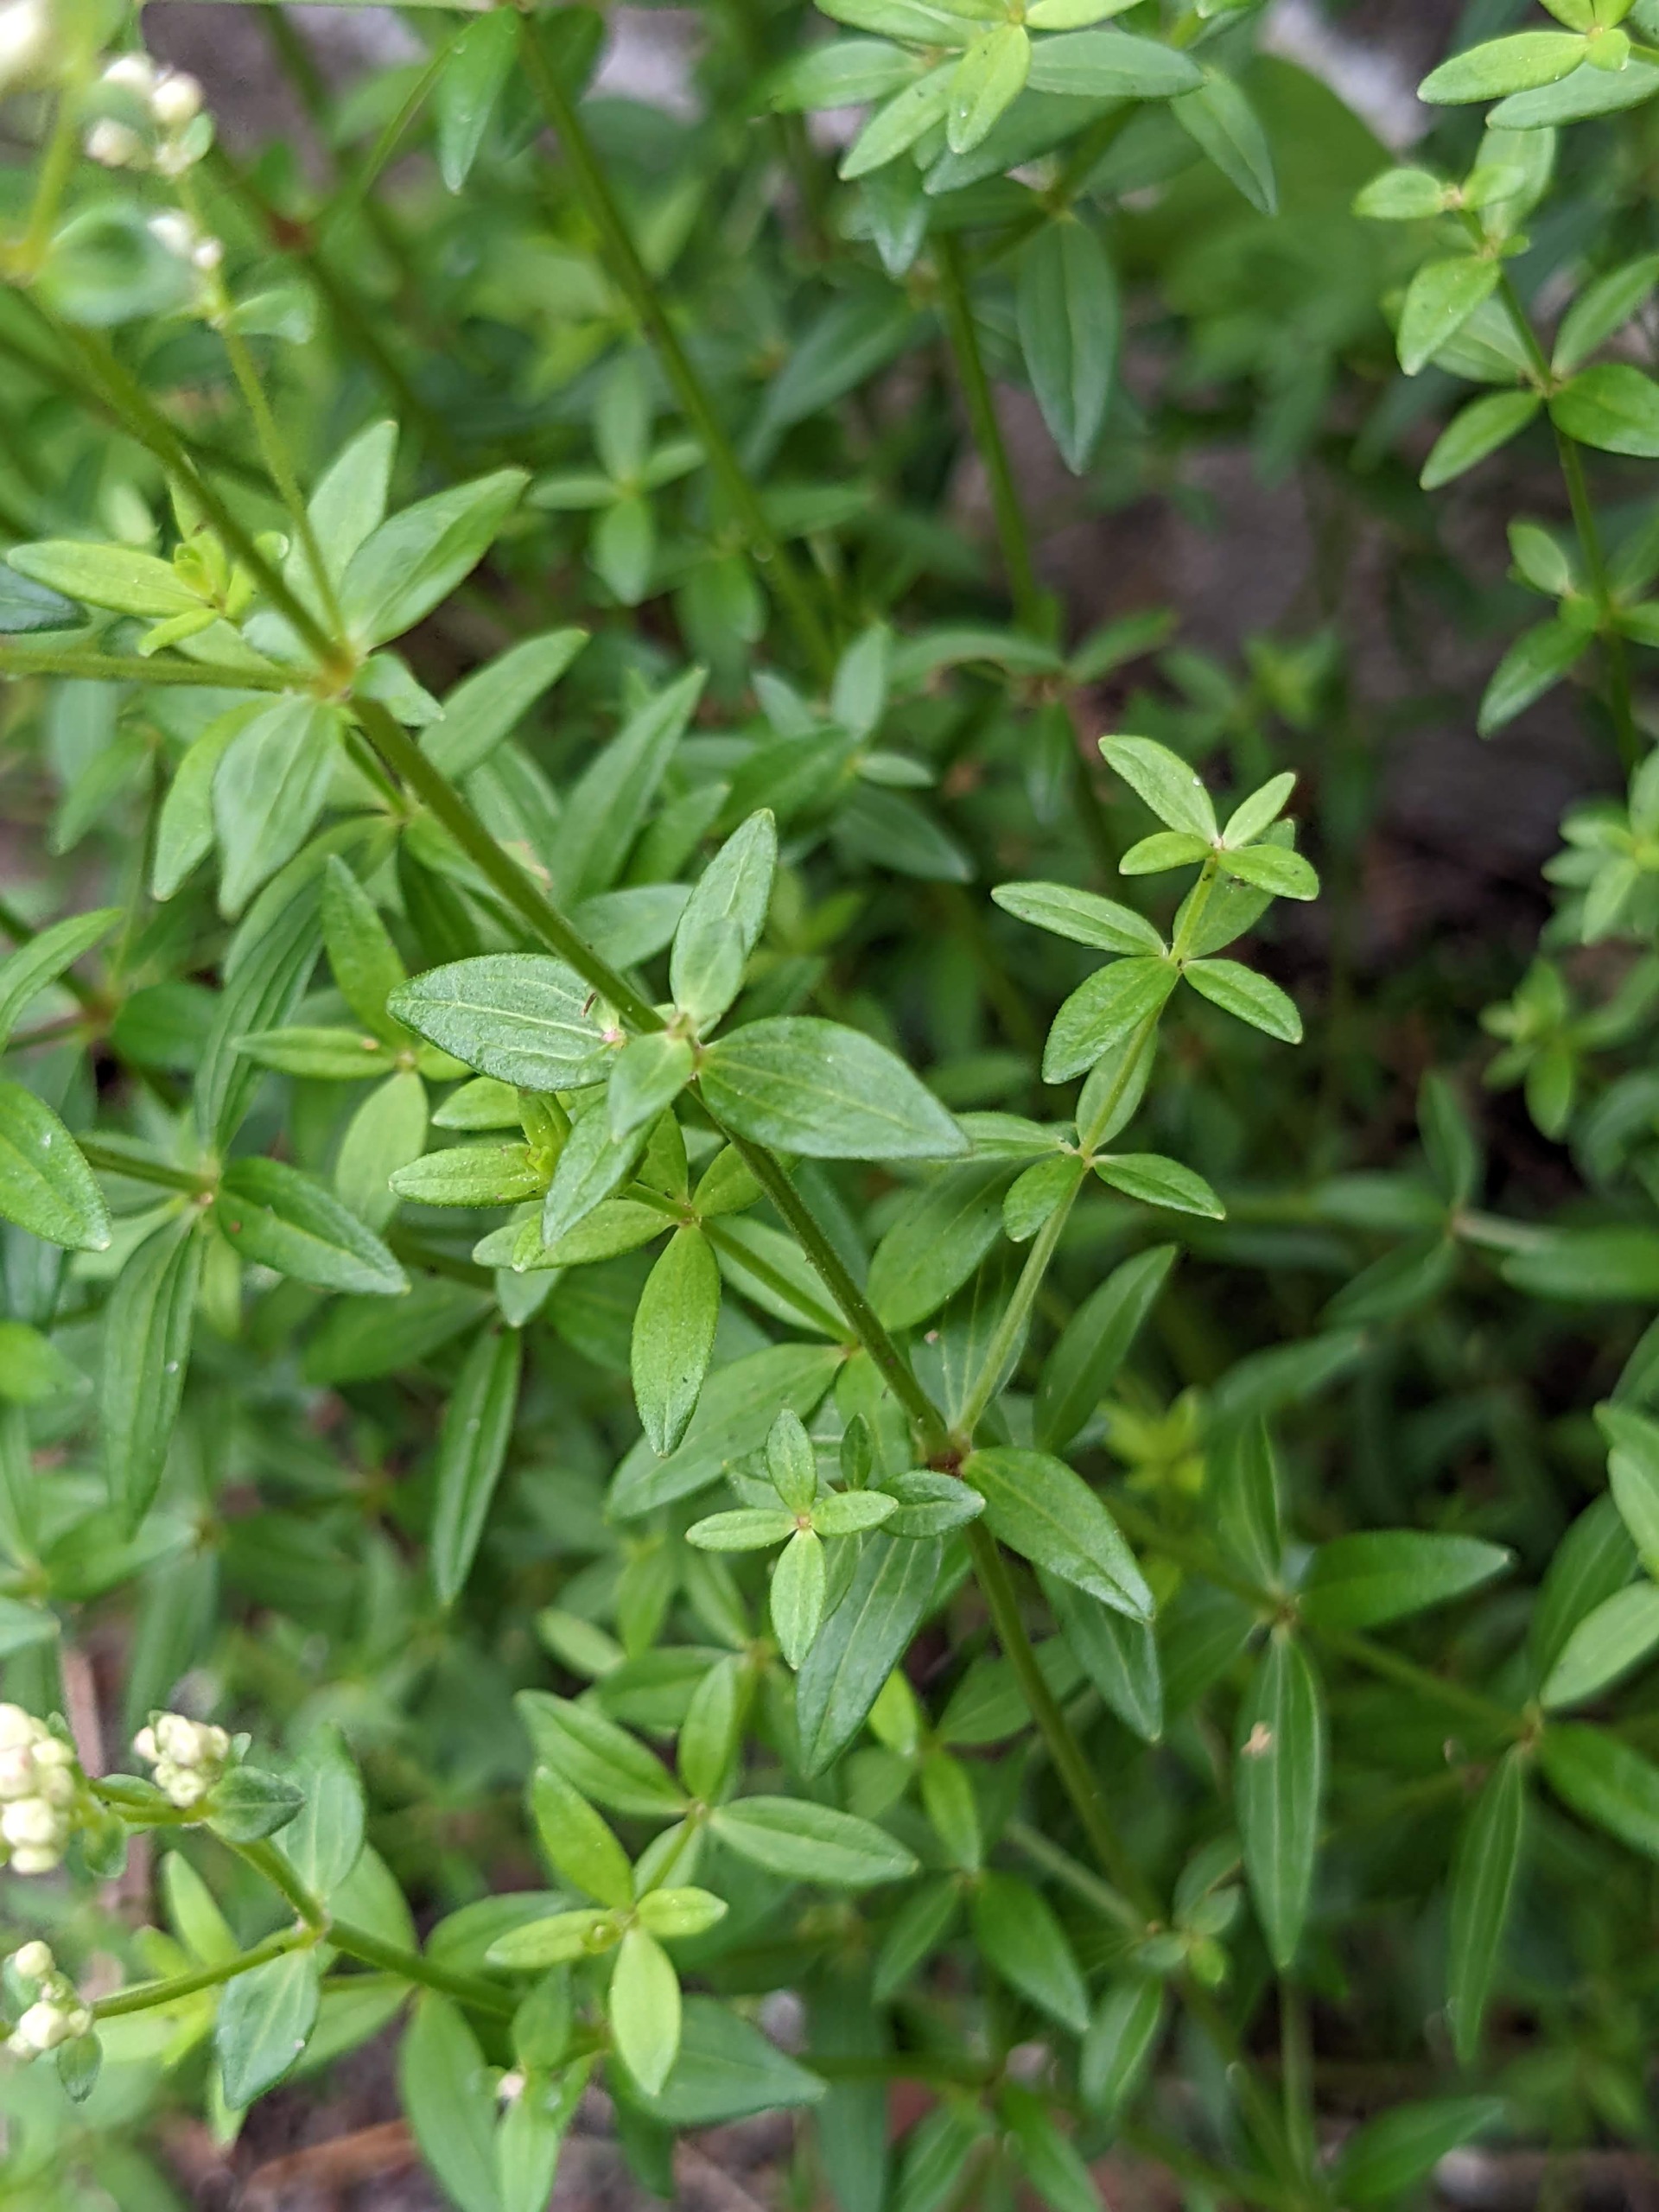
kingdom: Plantae
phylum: Tracheophyta
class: Magnoliopsida
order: Gentianales
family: Rubiaceae
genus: Galium
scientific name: Galium boreale
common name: Trenervet snerre
